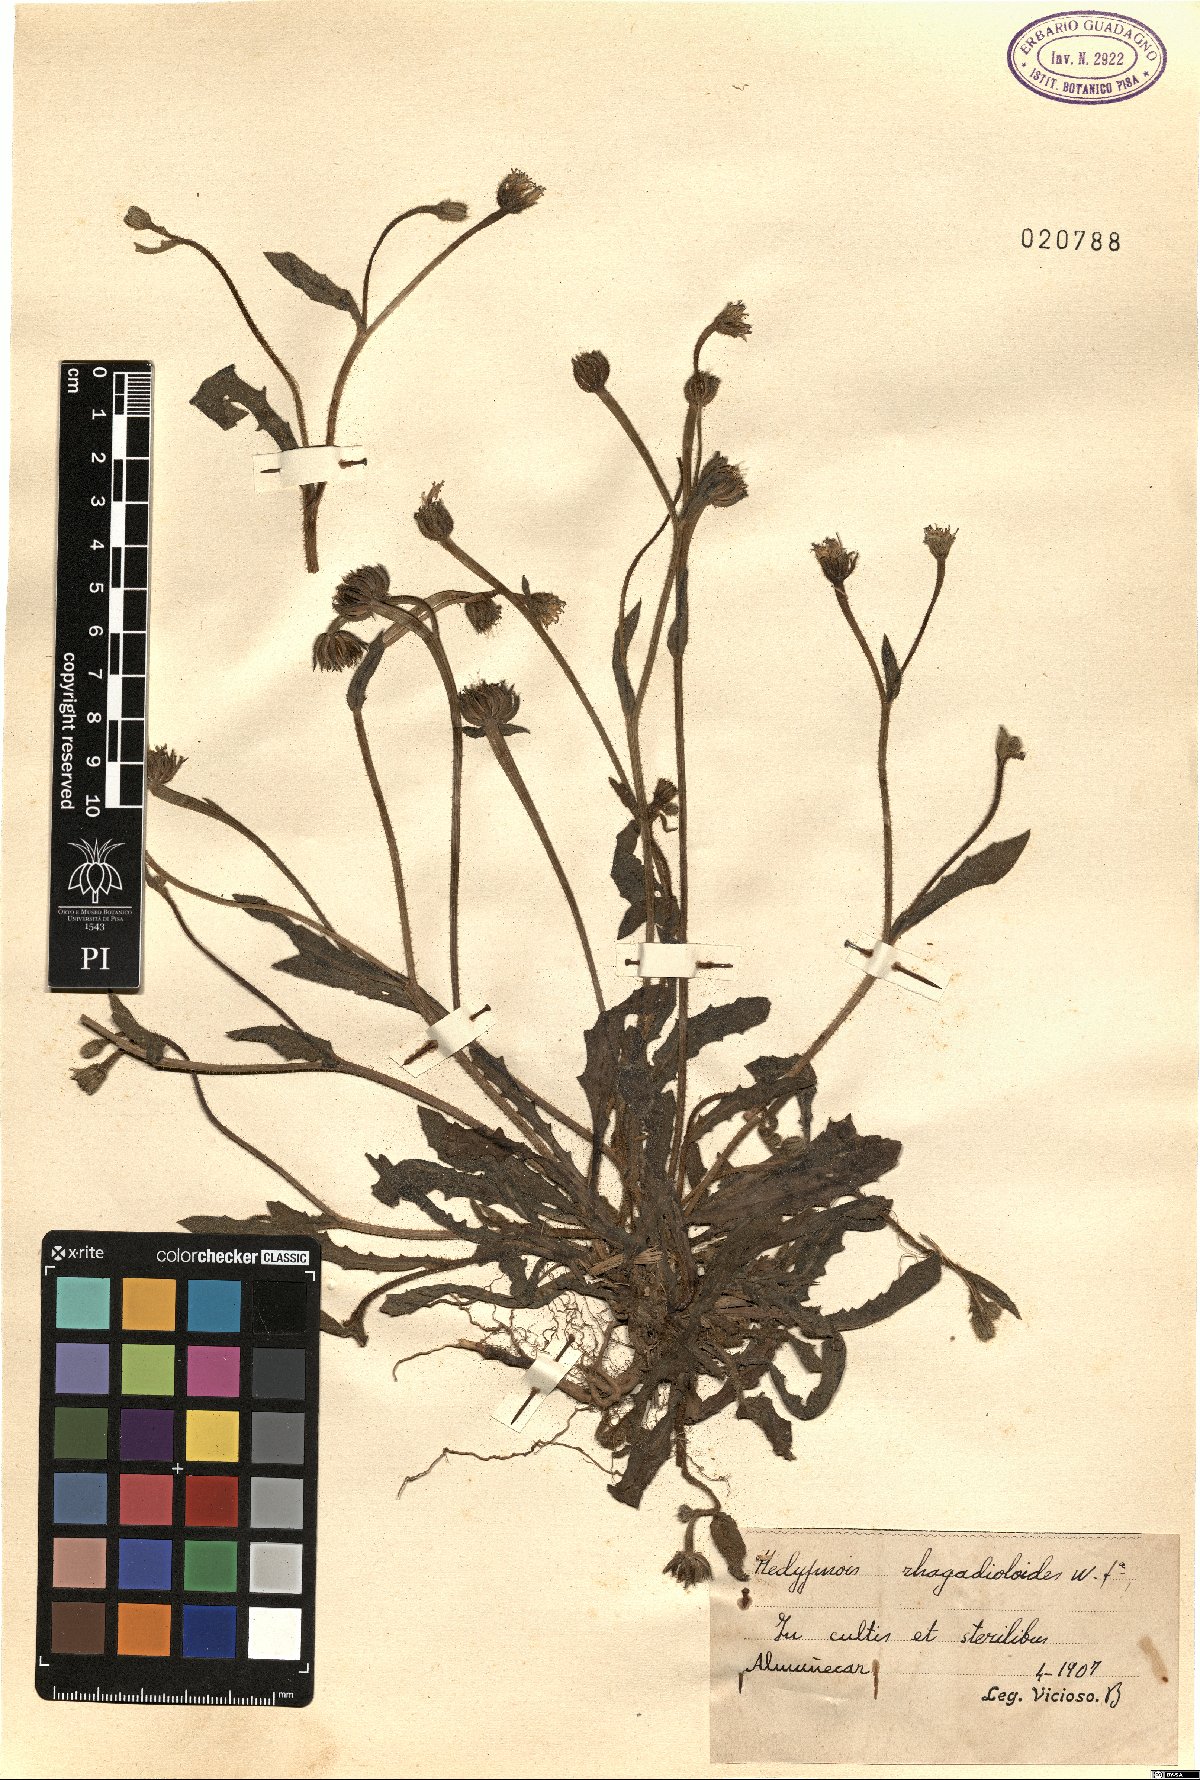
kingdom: Plantae
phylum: Tracheophyta
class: Magnoliopsida
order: Asterales
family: Asteraceae
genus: Hedypnois
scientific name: Hedypnois rhagadioloides
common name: Cretan weed
